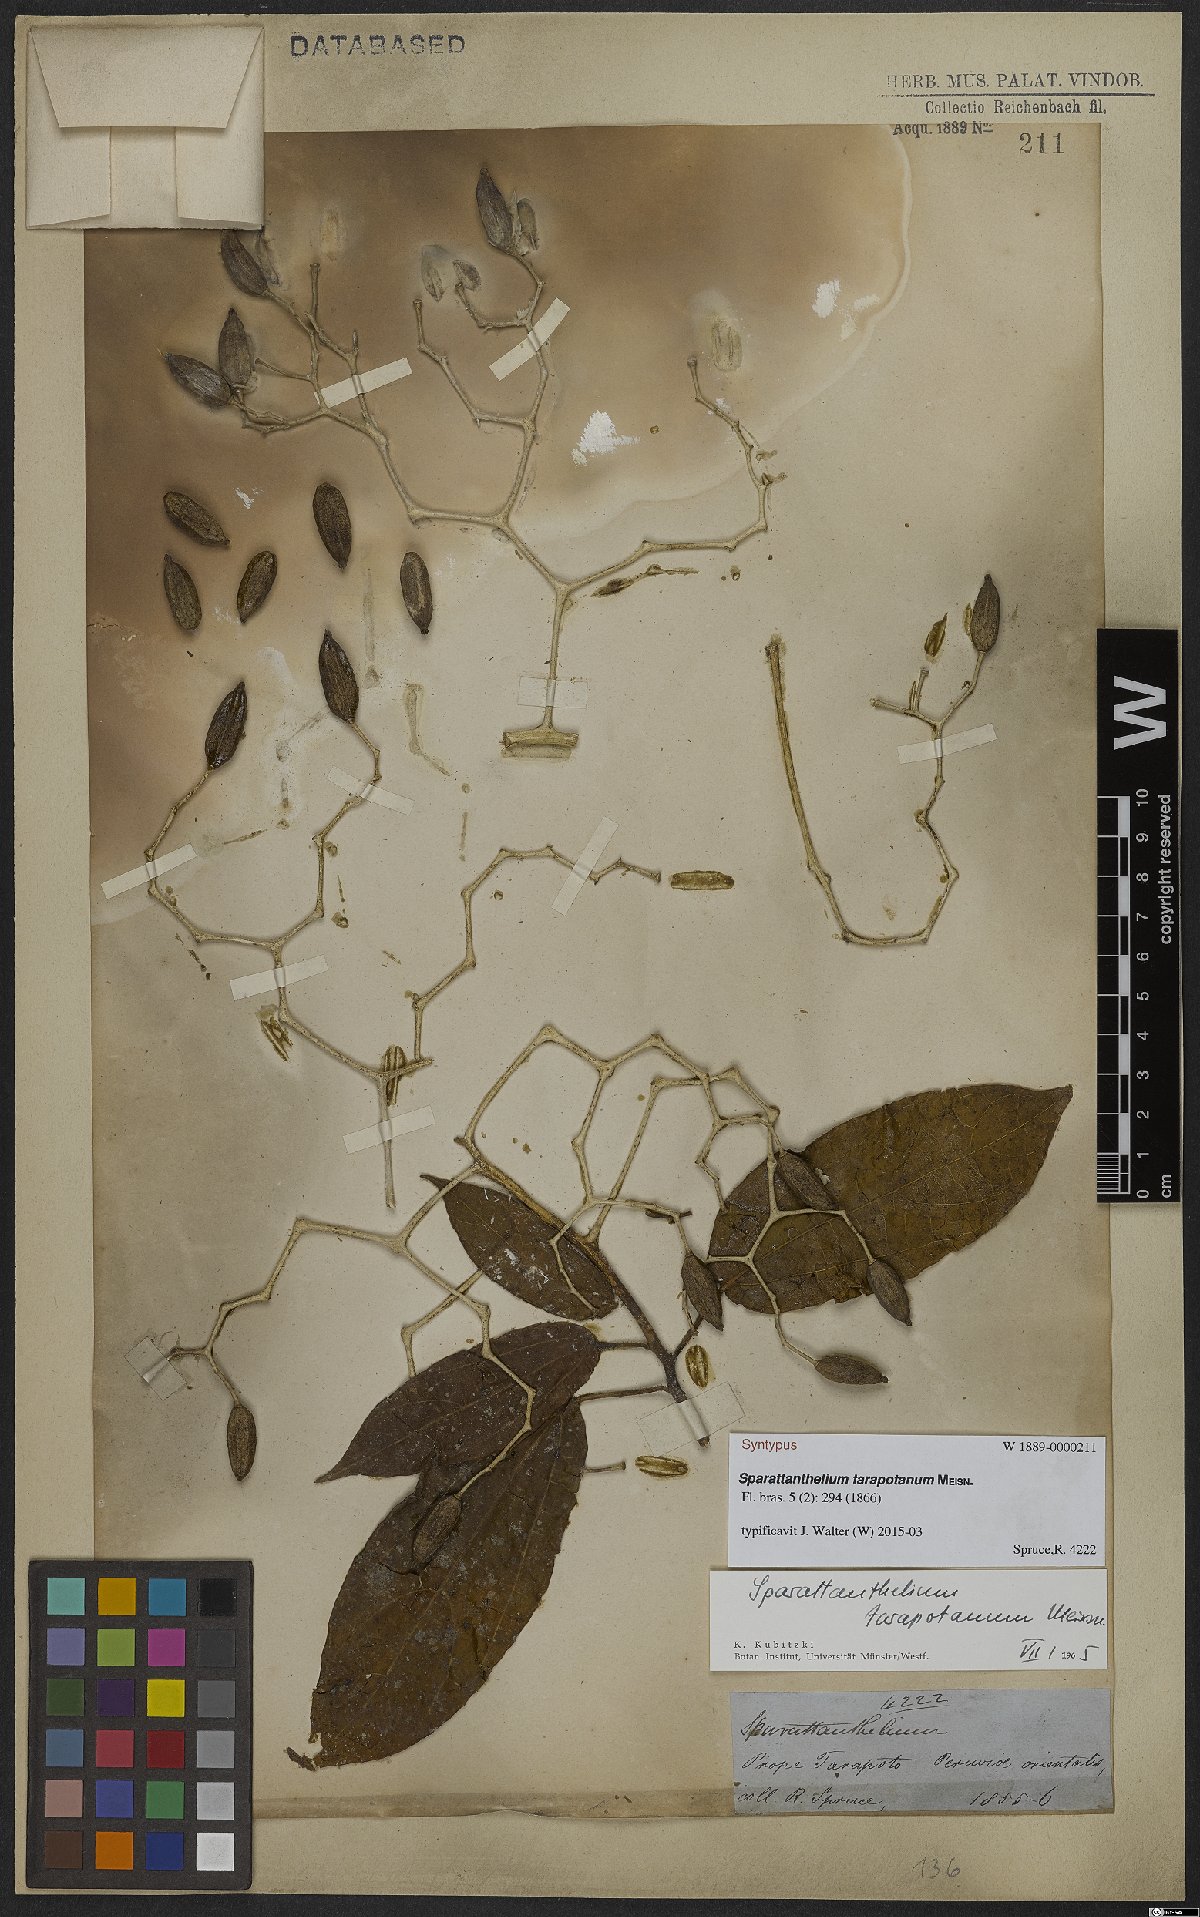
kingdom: Plantae
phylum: Tracheophyta
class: Magnoliopsida
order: Laurales
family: Hernandiaceae
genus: Sparattanthelium
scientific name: Sparattanthelium tarapotanum
